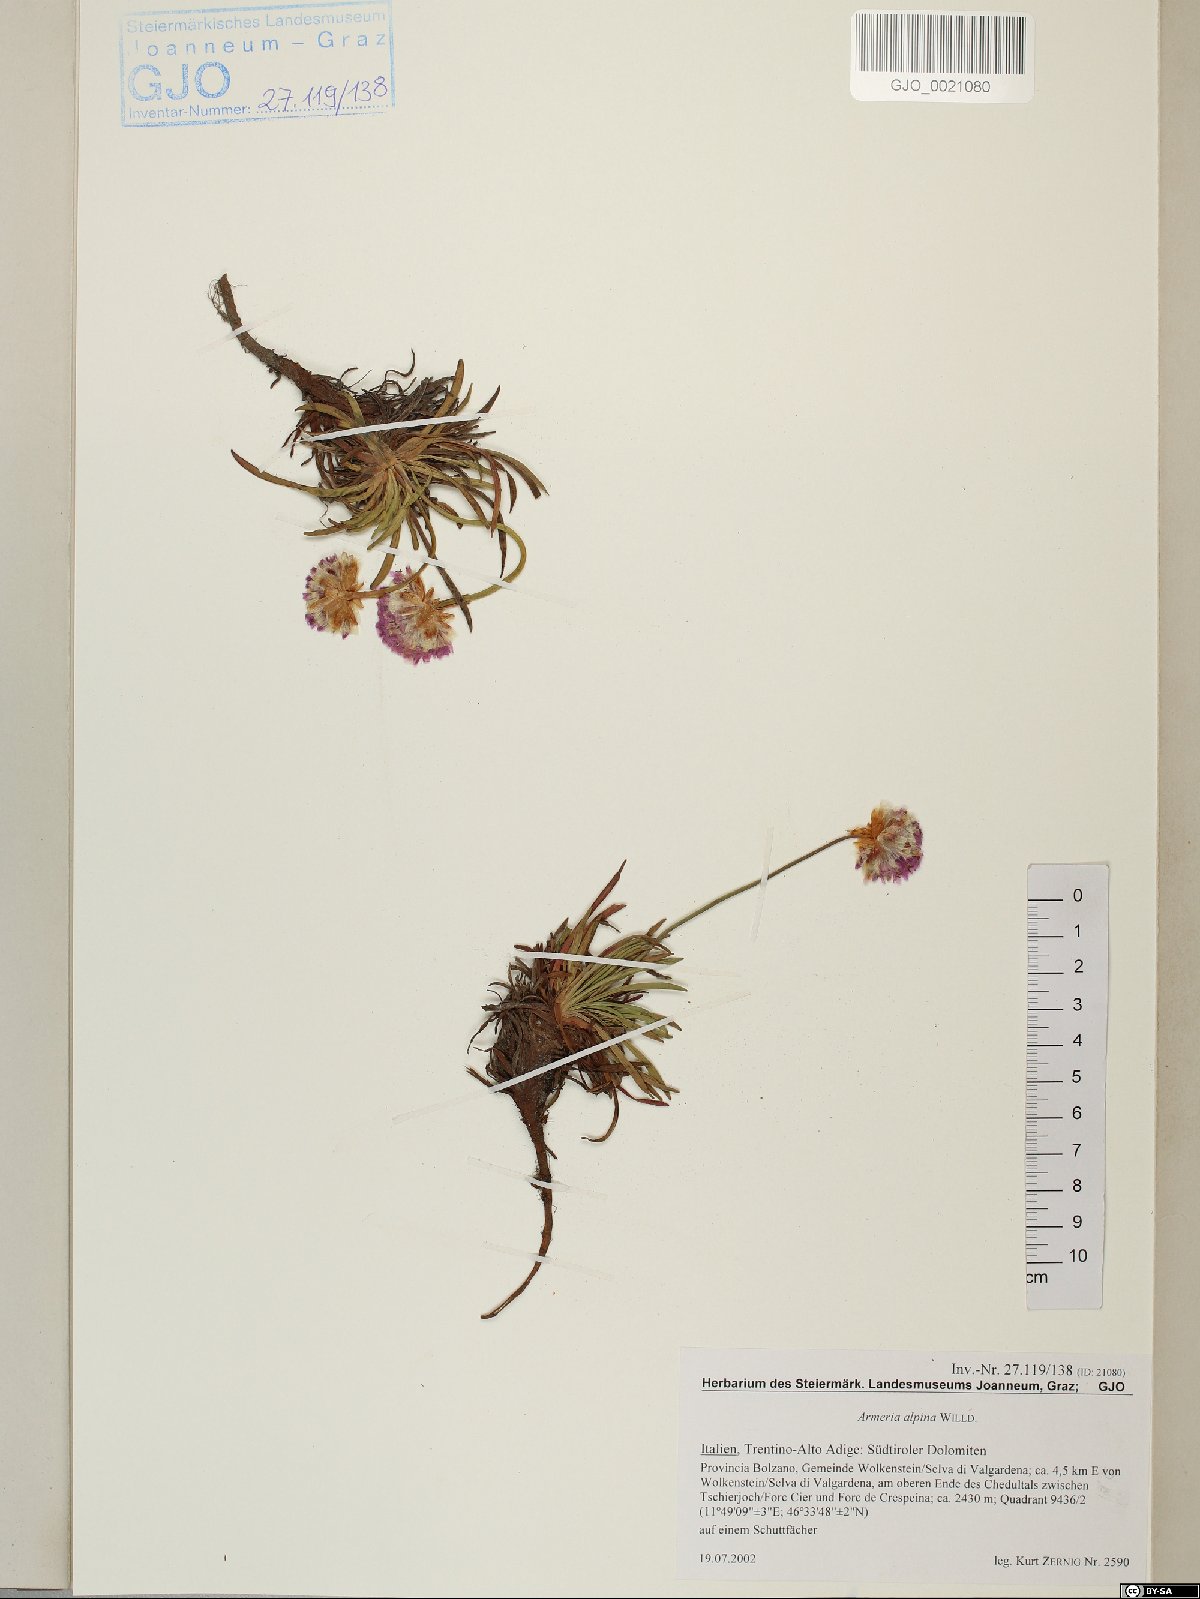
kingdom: Plantae
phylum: Tracheophyta
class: Magnoliopsida
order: Caryophyllales
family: Plumbaginaceae
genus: Armeria
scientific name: Armeria alpina
